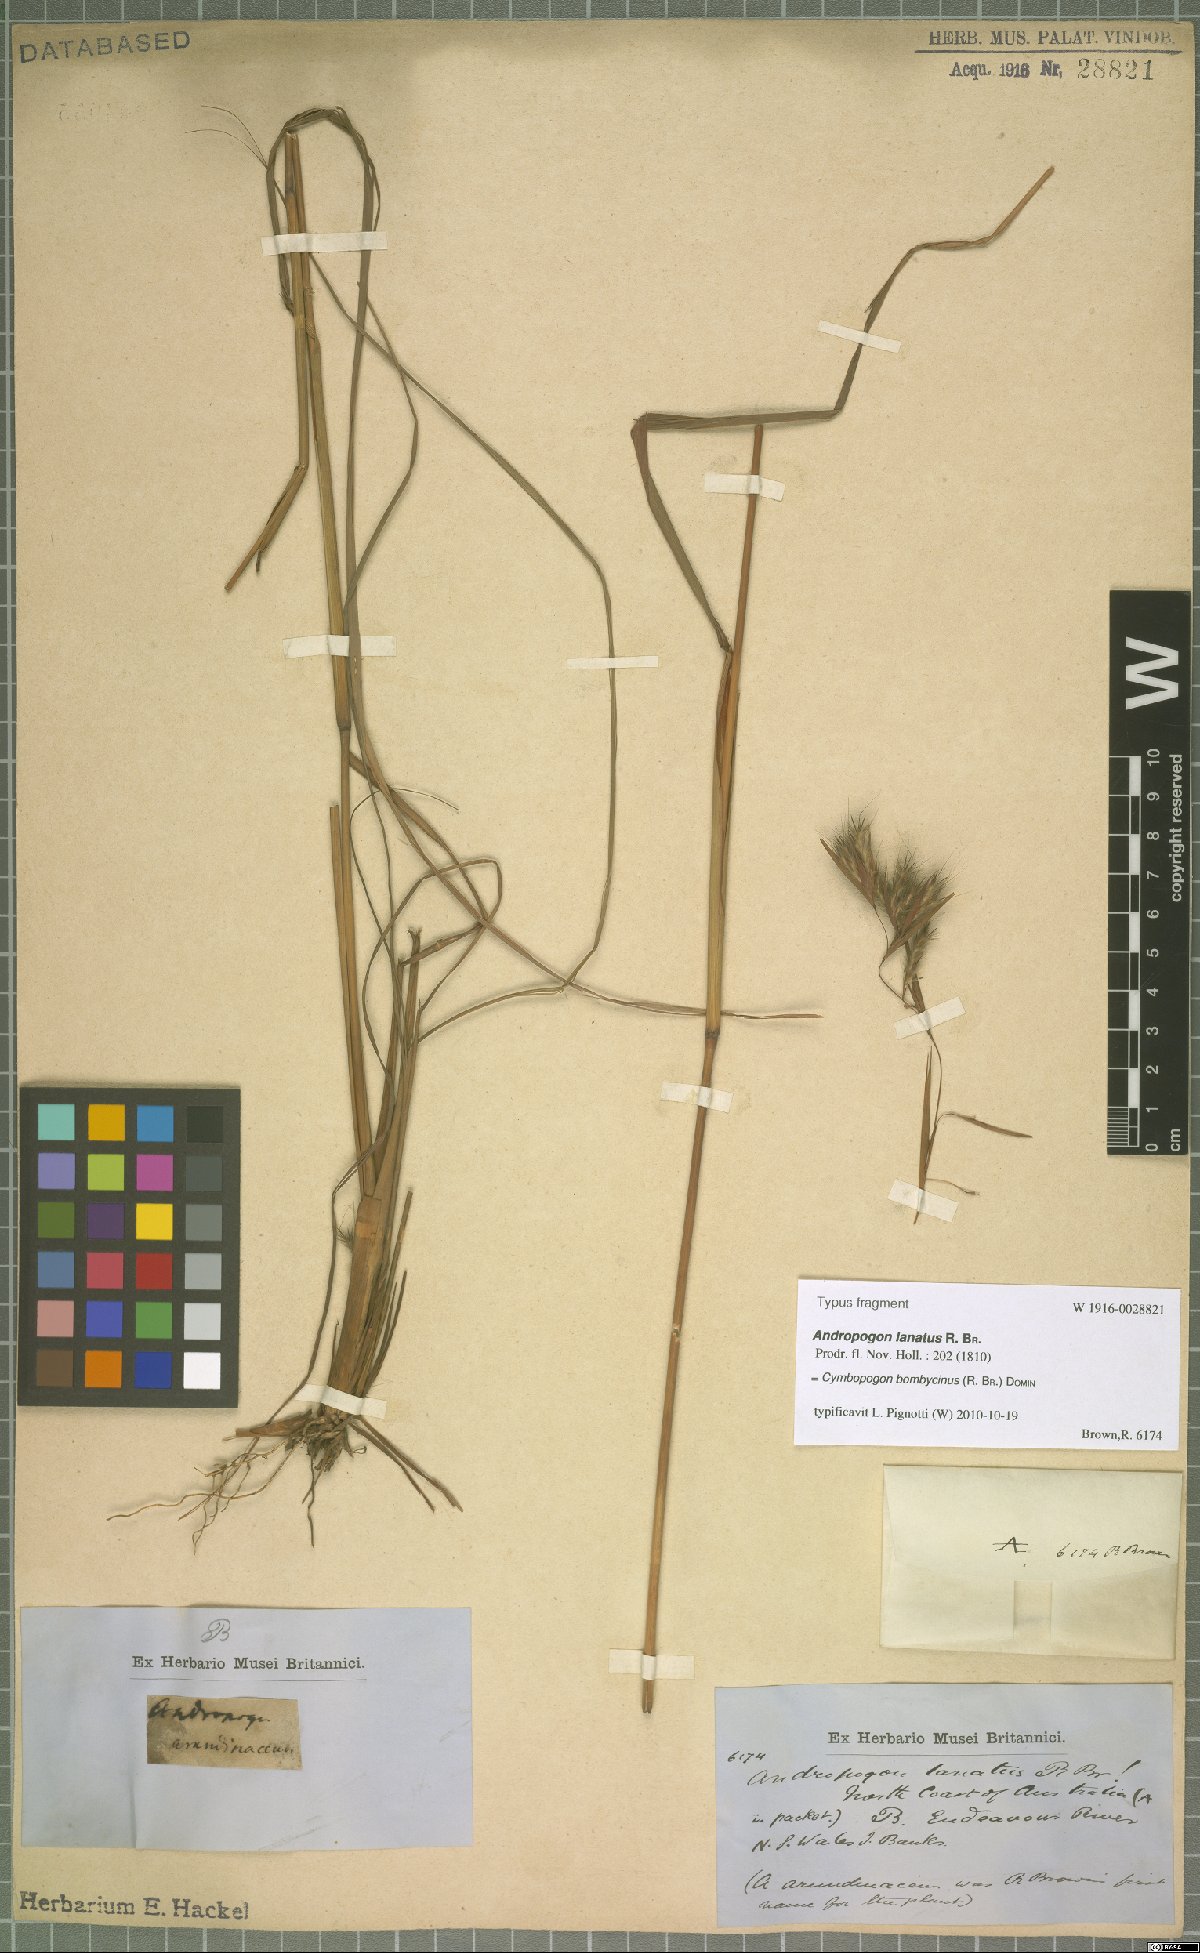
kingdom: Plantae
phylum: Tracheophyta
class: Liliopsida
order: Poales
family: Poaceae
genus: Cymbopogon
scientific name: Cymbopogon bombycinus
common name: Citronella grass
